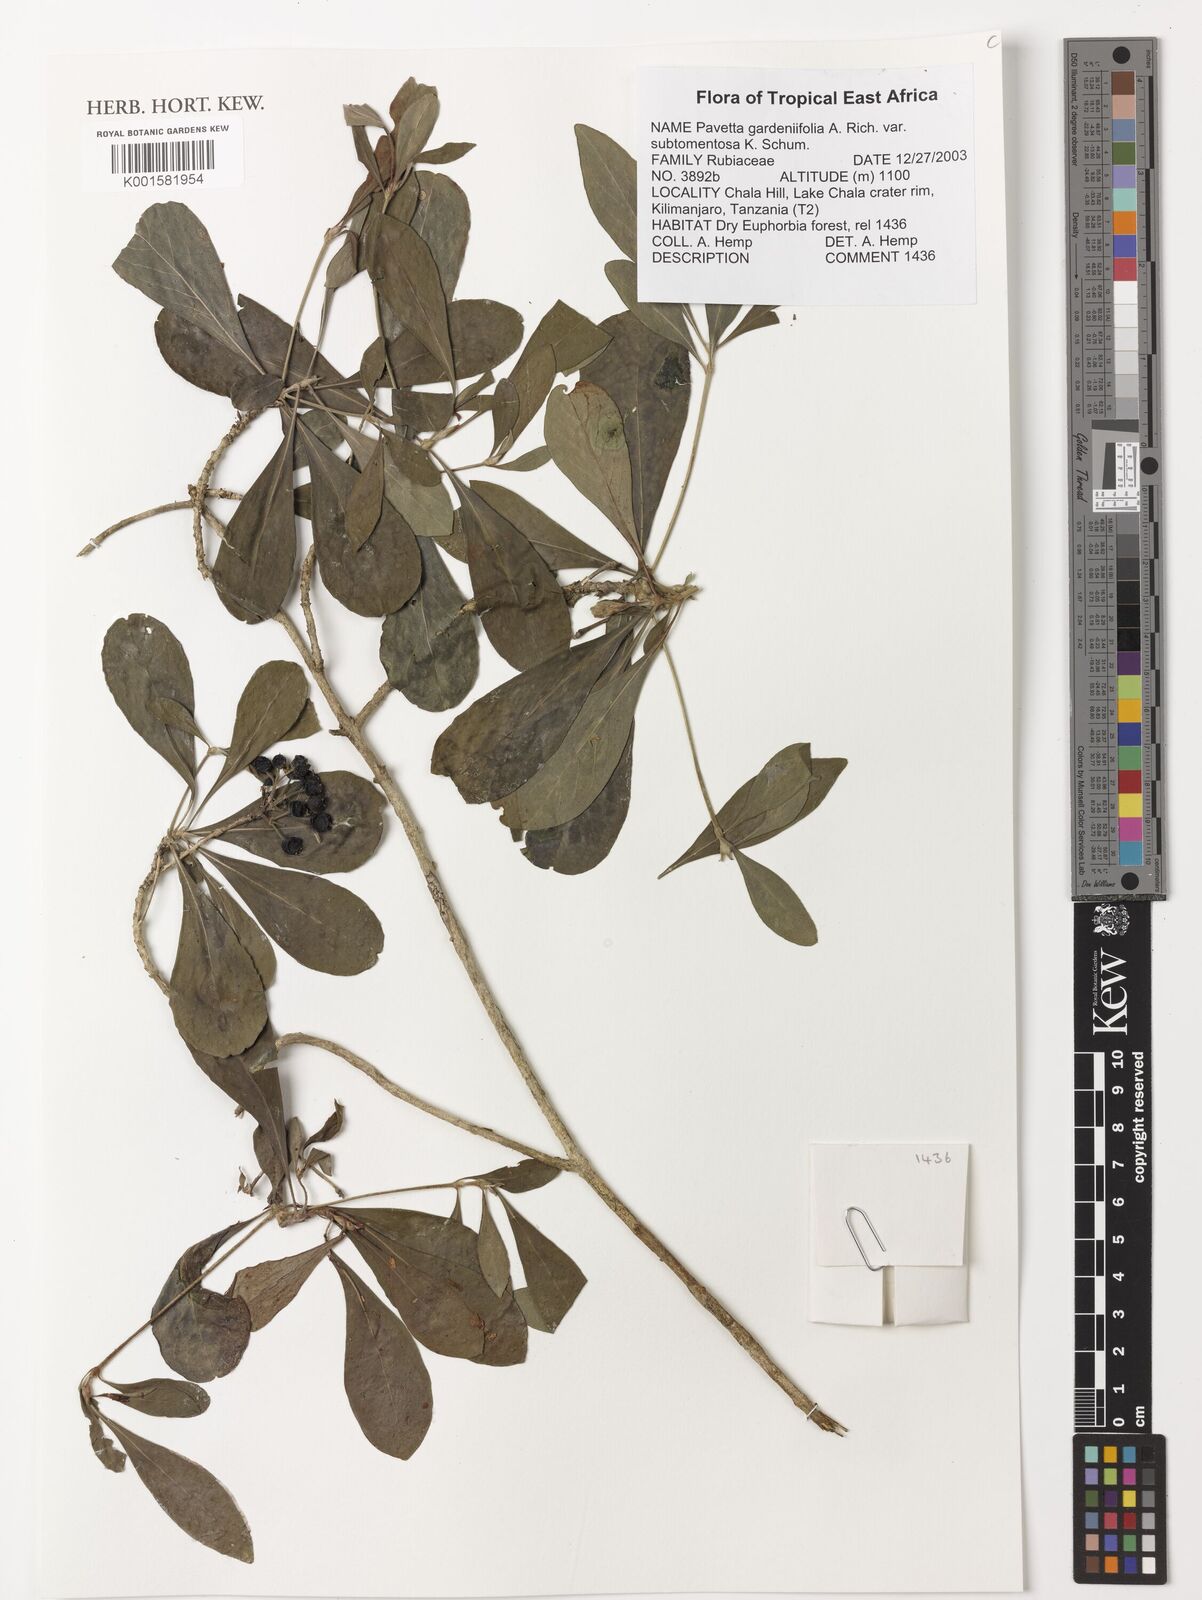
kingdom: Plantae
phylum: Tracheophyta
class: Magnoliopsida
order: Gentianales
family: Rubiaceae
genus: Pavetta
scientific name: Pavetta gardeniifolia
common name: Common brides-bush
